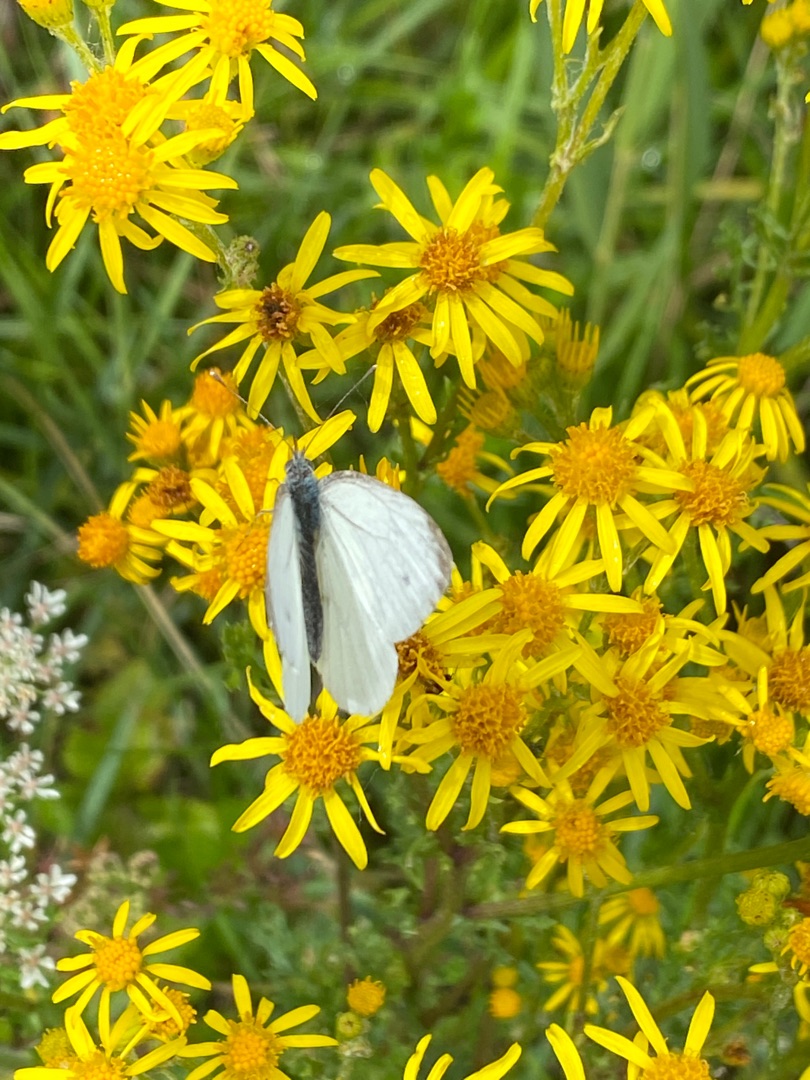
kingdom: Animalia
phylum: Arthropoda
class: Insecta
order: Lepidoptera
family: Pieridae
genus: Pieris
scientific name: Pieris napi
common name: Grønåret kålsommerfugl
